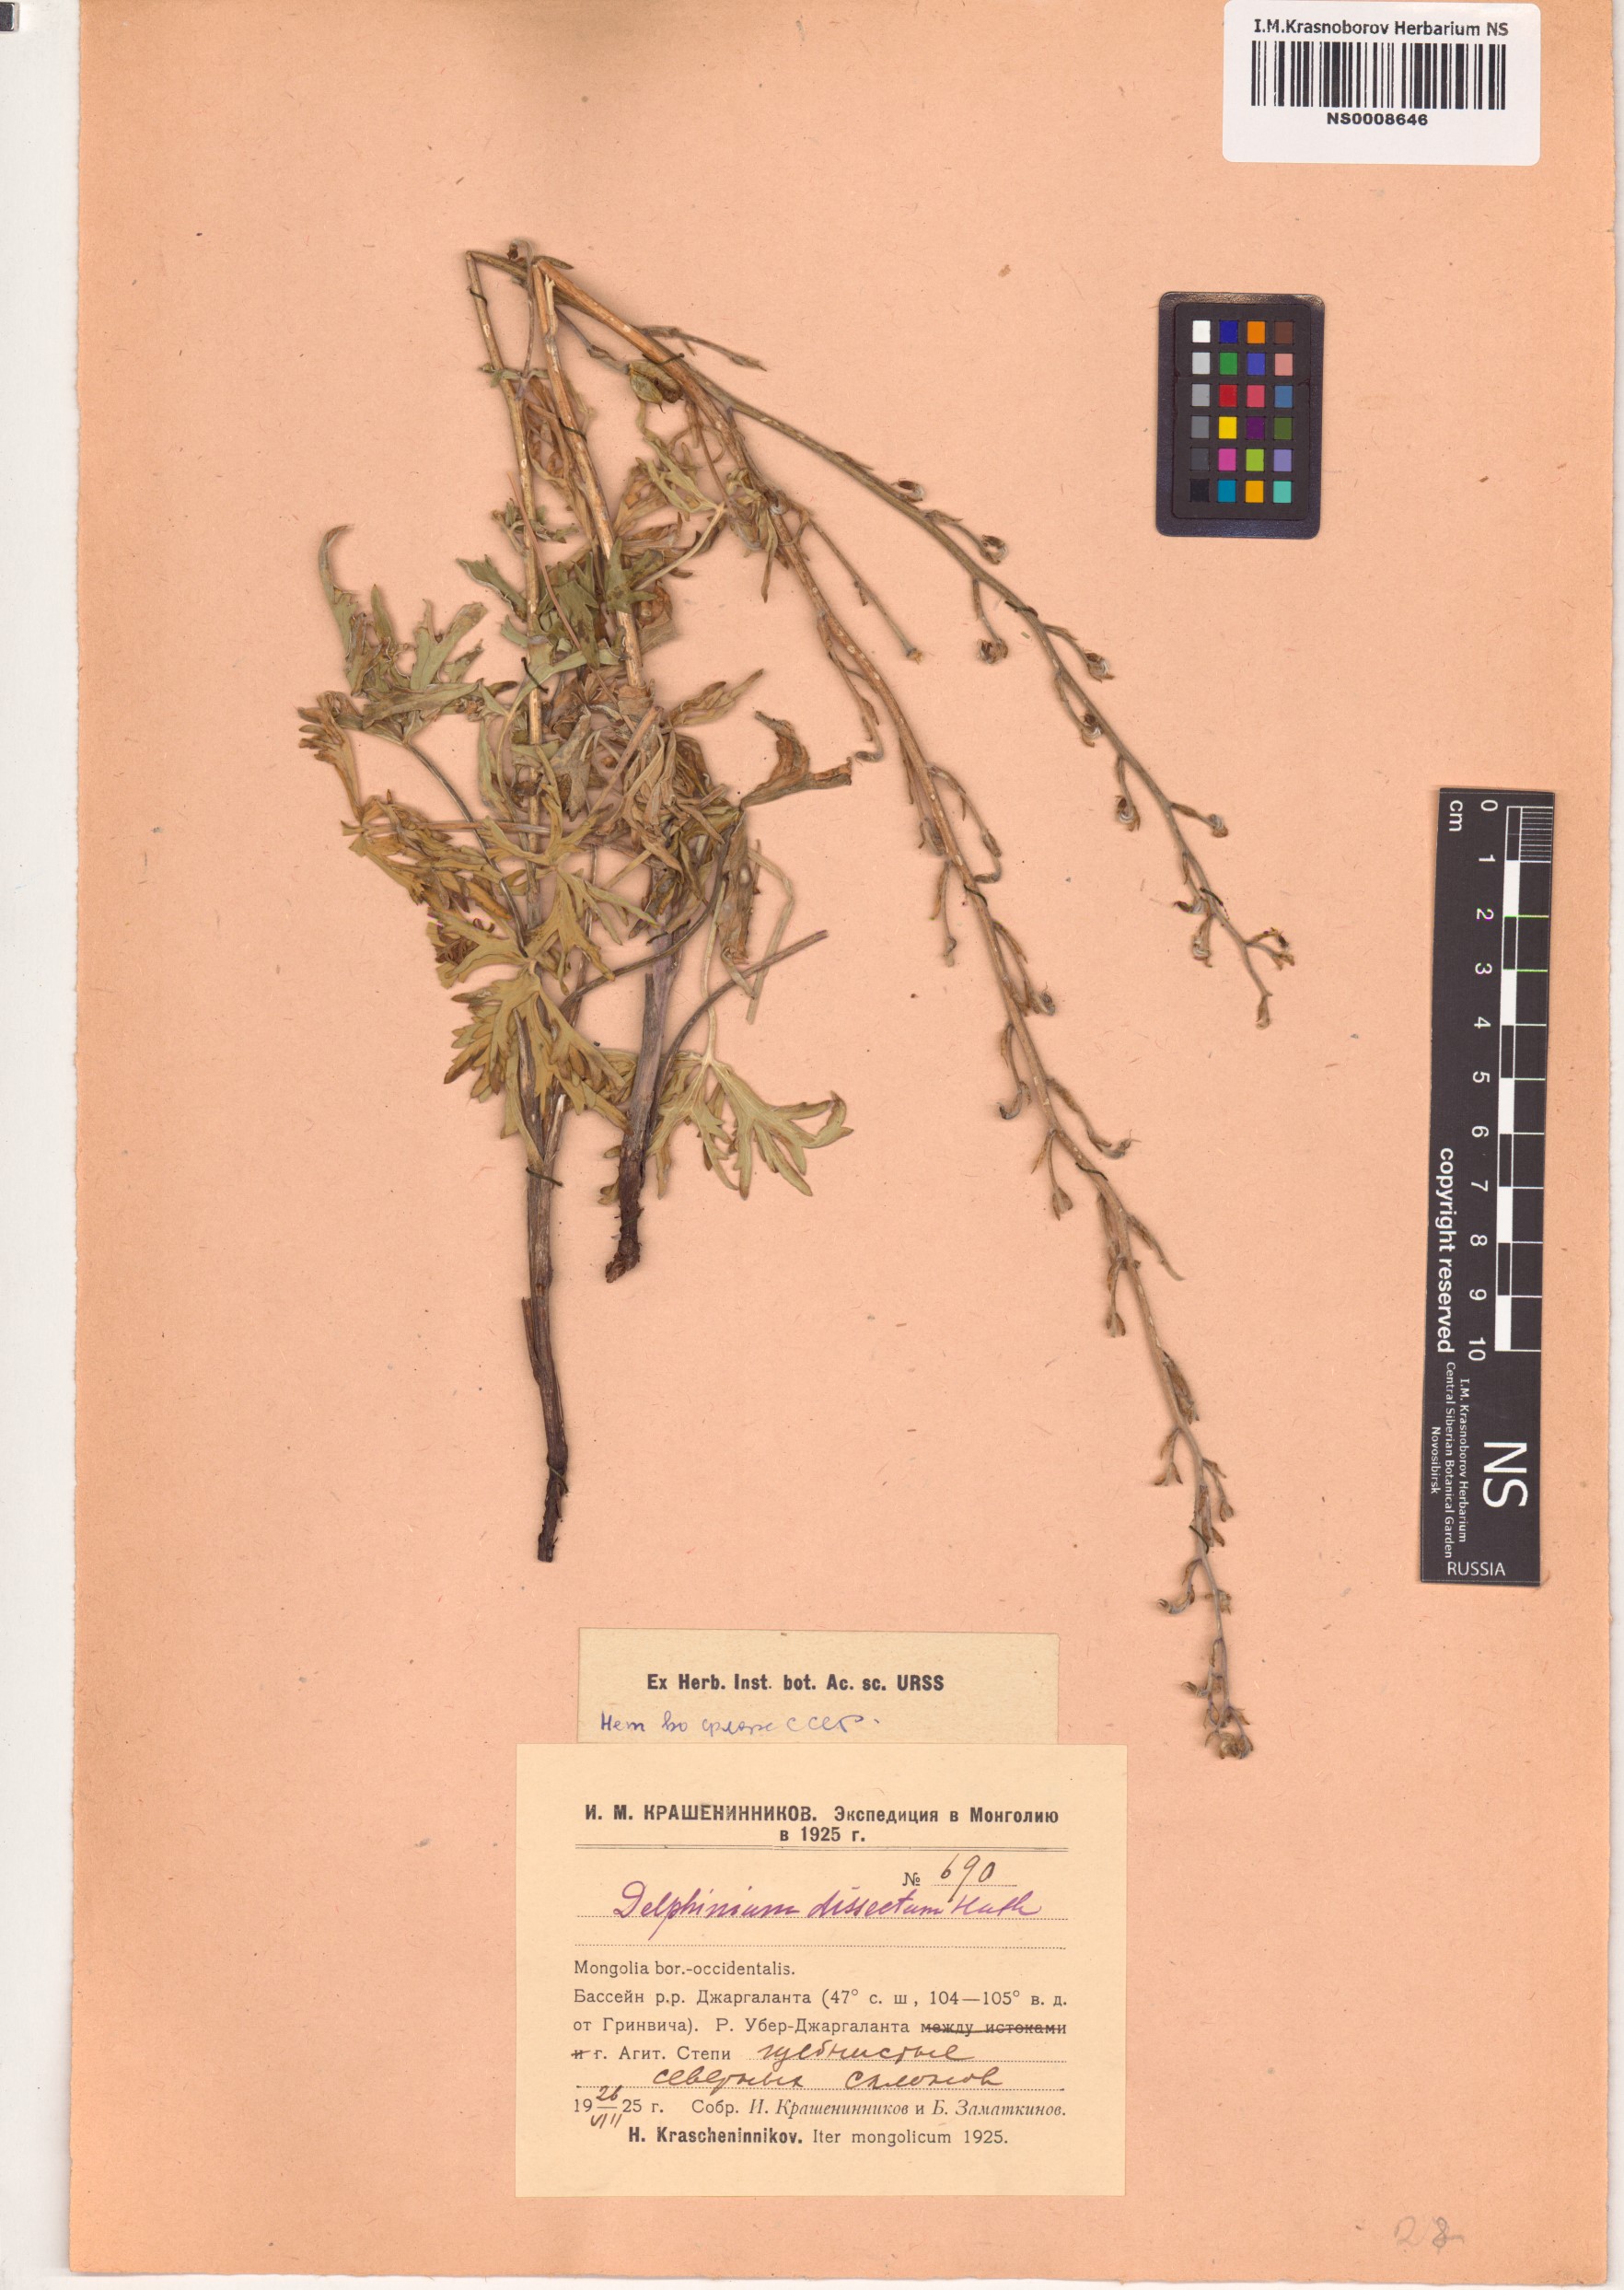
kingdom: Plantae
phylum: Tracheophyta
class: Magnoliopsida
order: Ranunculales
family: Ranunculaceae
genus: Delphinium
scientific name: Delphinium dissectum
